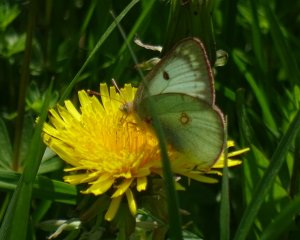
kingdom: Animalia
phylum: Arthropoda
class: Insecta
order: Lepidoptera
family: Pieridae
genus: Colias
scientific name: Colias philodice
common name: Clouded Sulphur
